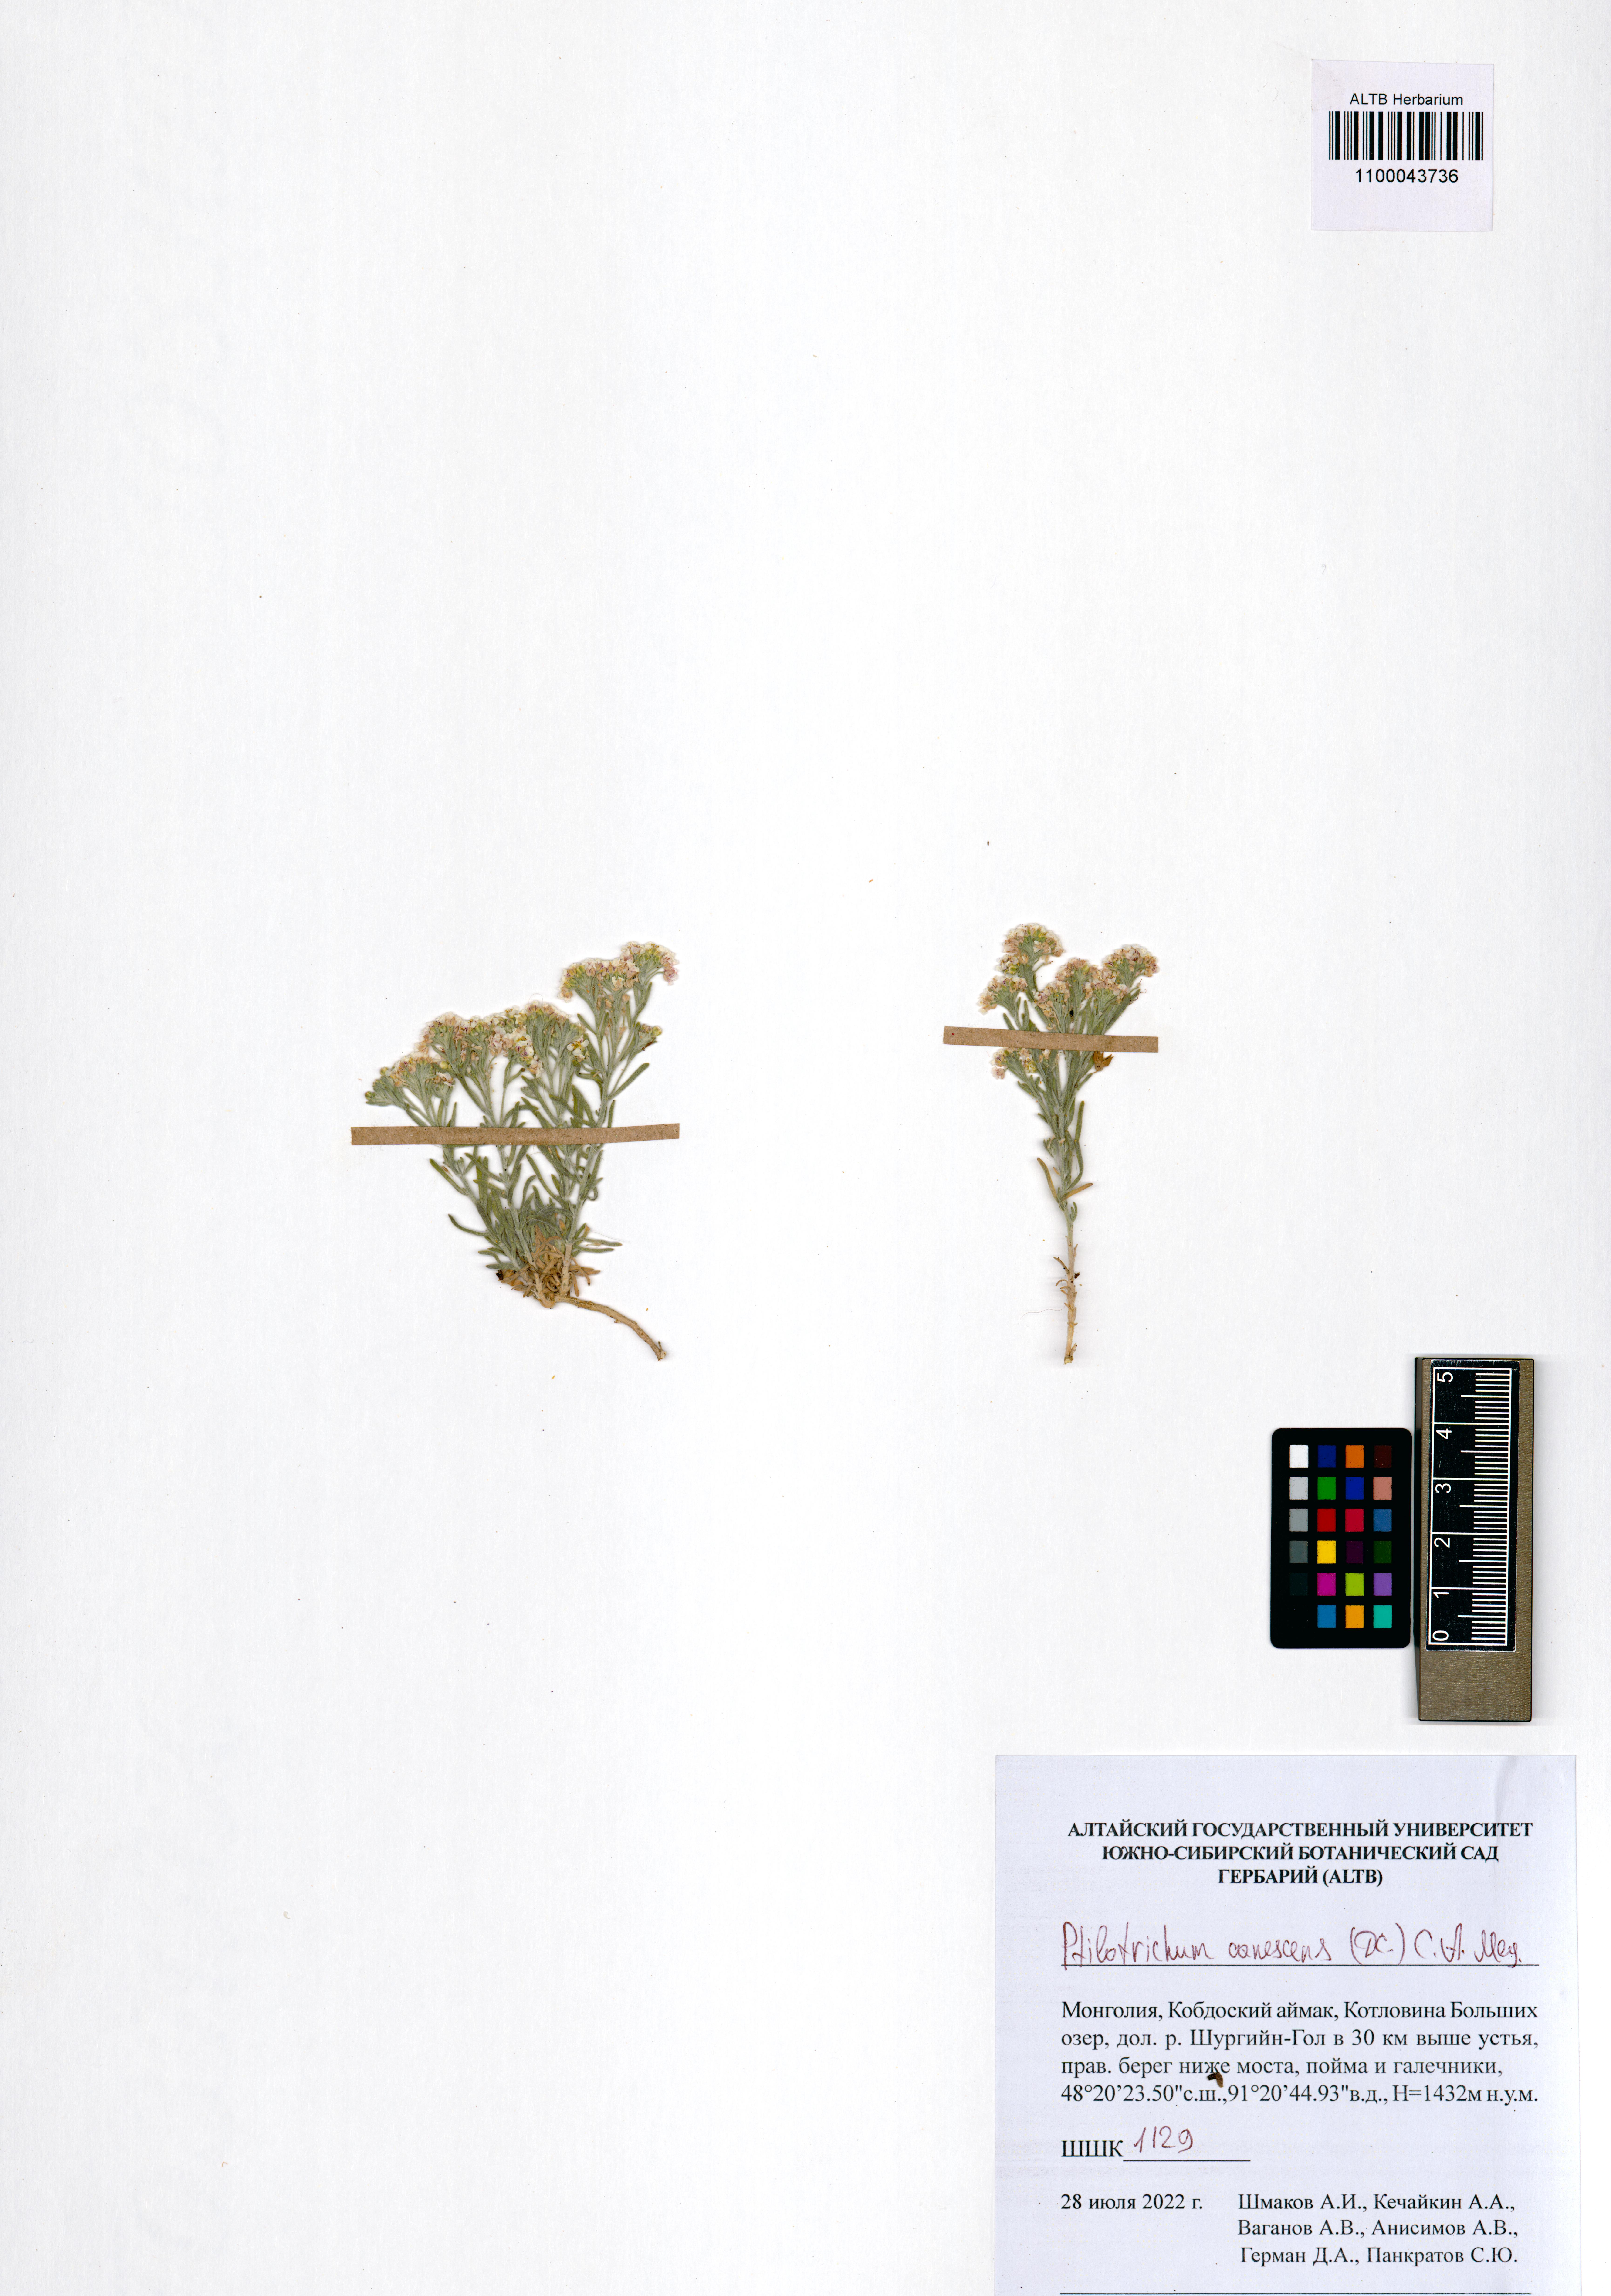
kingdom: Plantae
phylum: Tracheophyta
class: Magnoliopsida
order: Brassicales
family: Brassicaceae
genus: Stevenia
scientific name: Stevenia canescens
